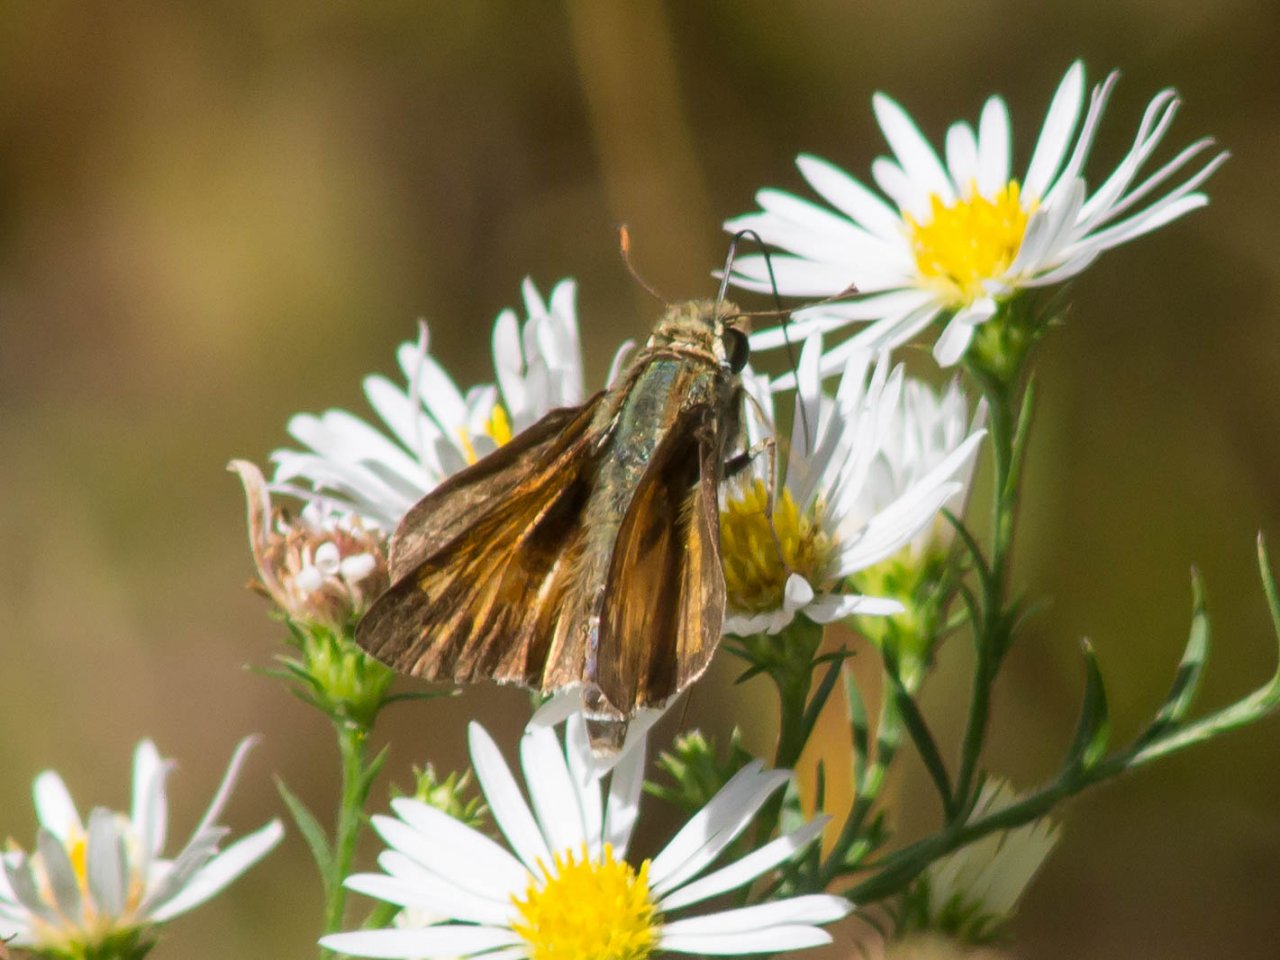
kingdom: Animalia
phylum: Arthropoda
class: Insecta
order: Lepidoptera
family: Hesperiidae
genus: Atalopedes
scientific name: Atalopedes campestris
